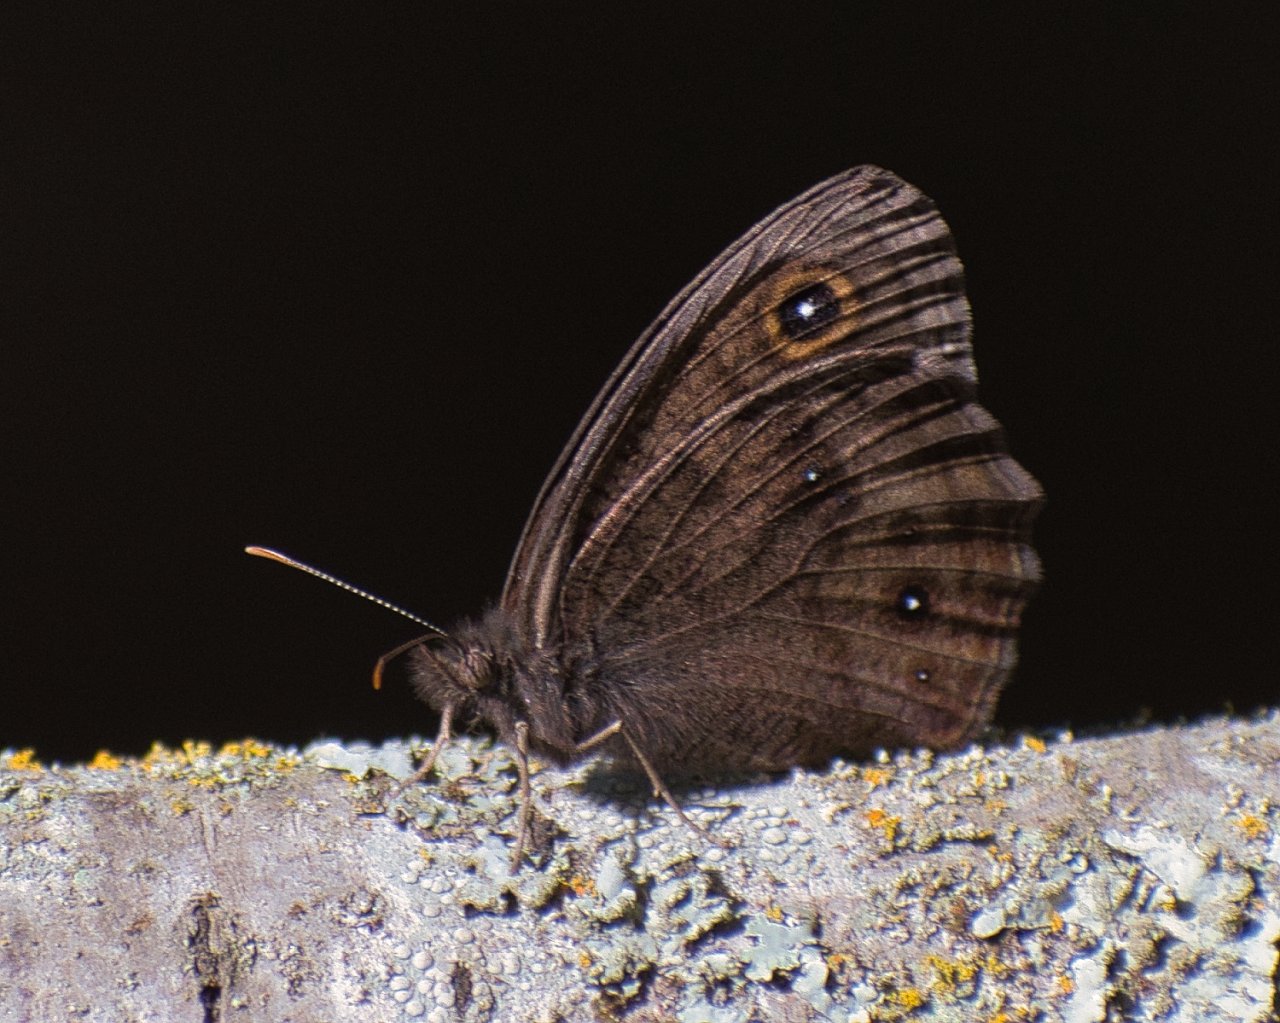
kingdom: Animalia
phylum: Arthropoda
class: Insecta
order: Lepidoptera
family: Nymphalidae
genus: Cercyonis
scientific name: Cercyonis pegala
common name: Common Wood-Nymph
